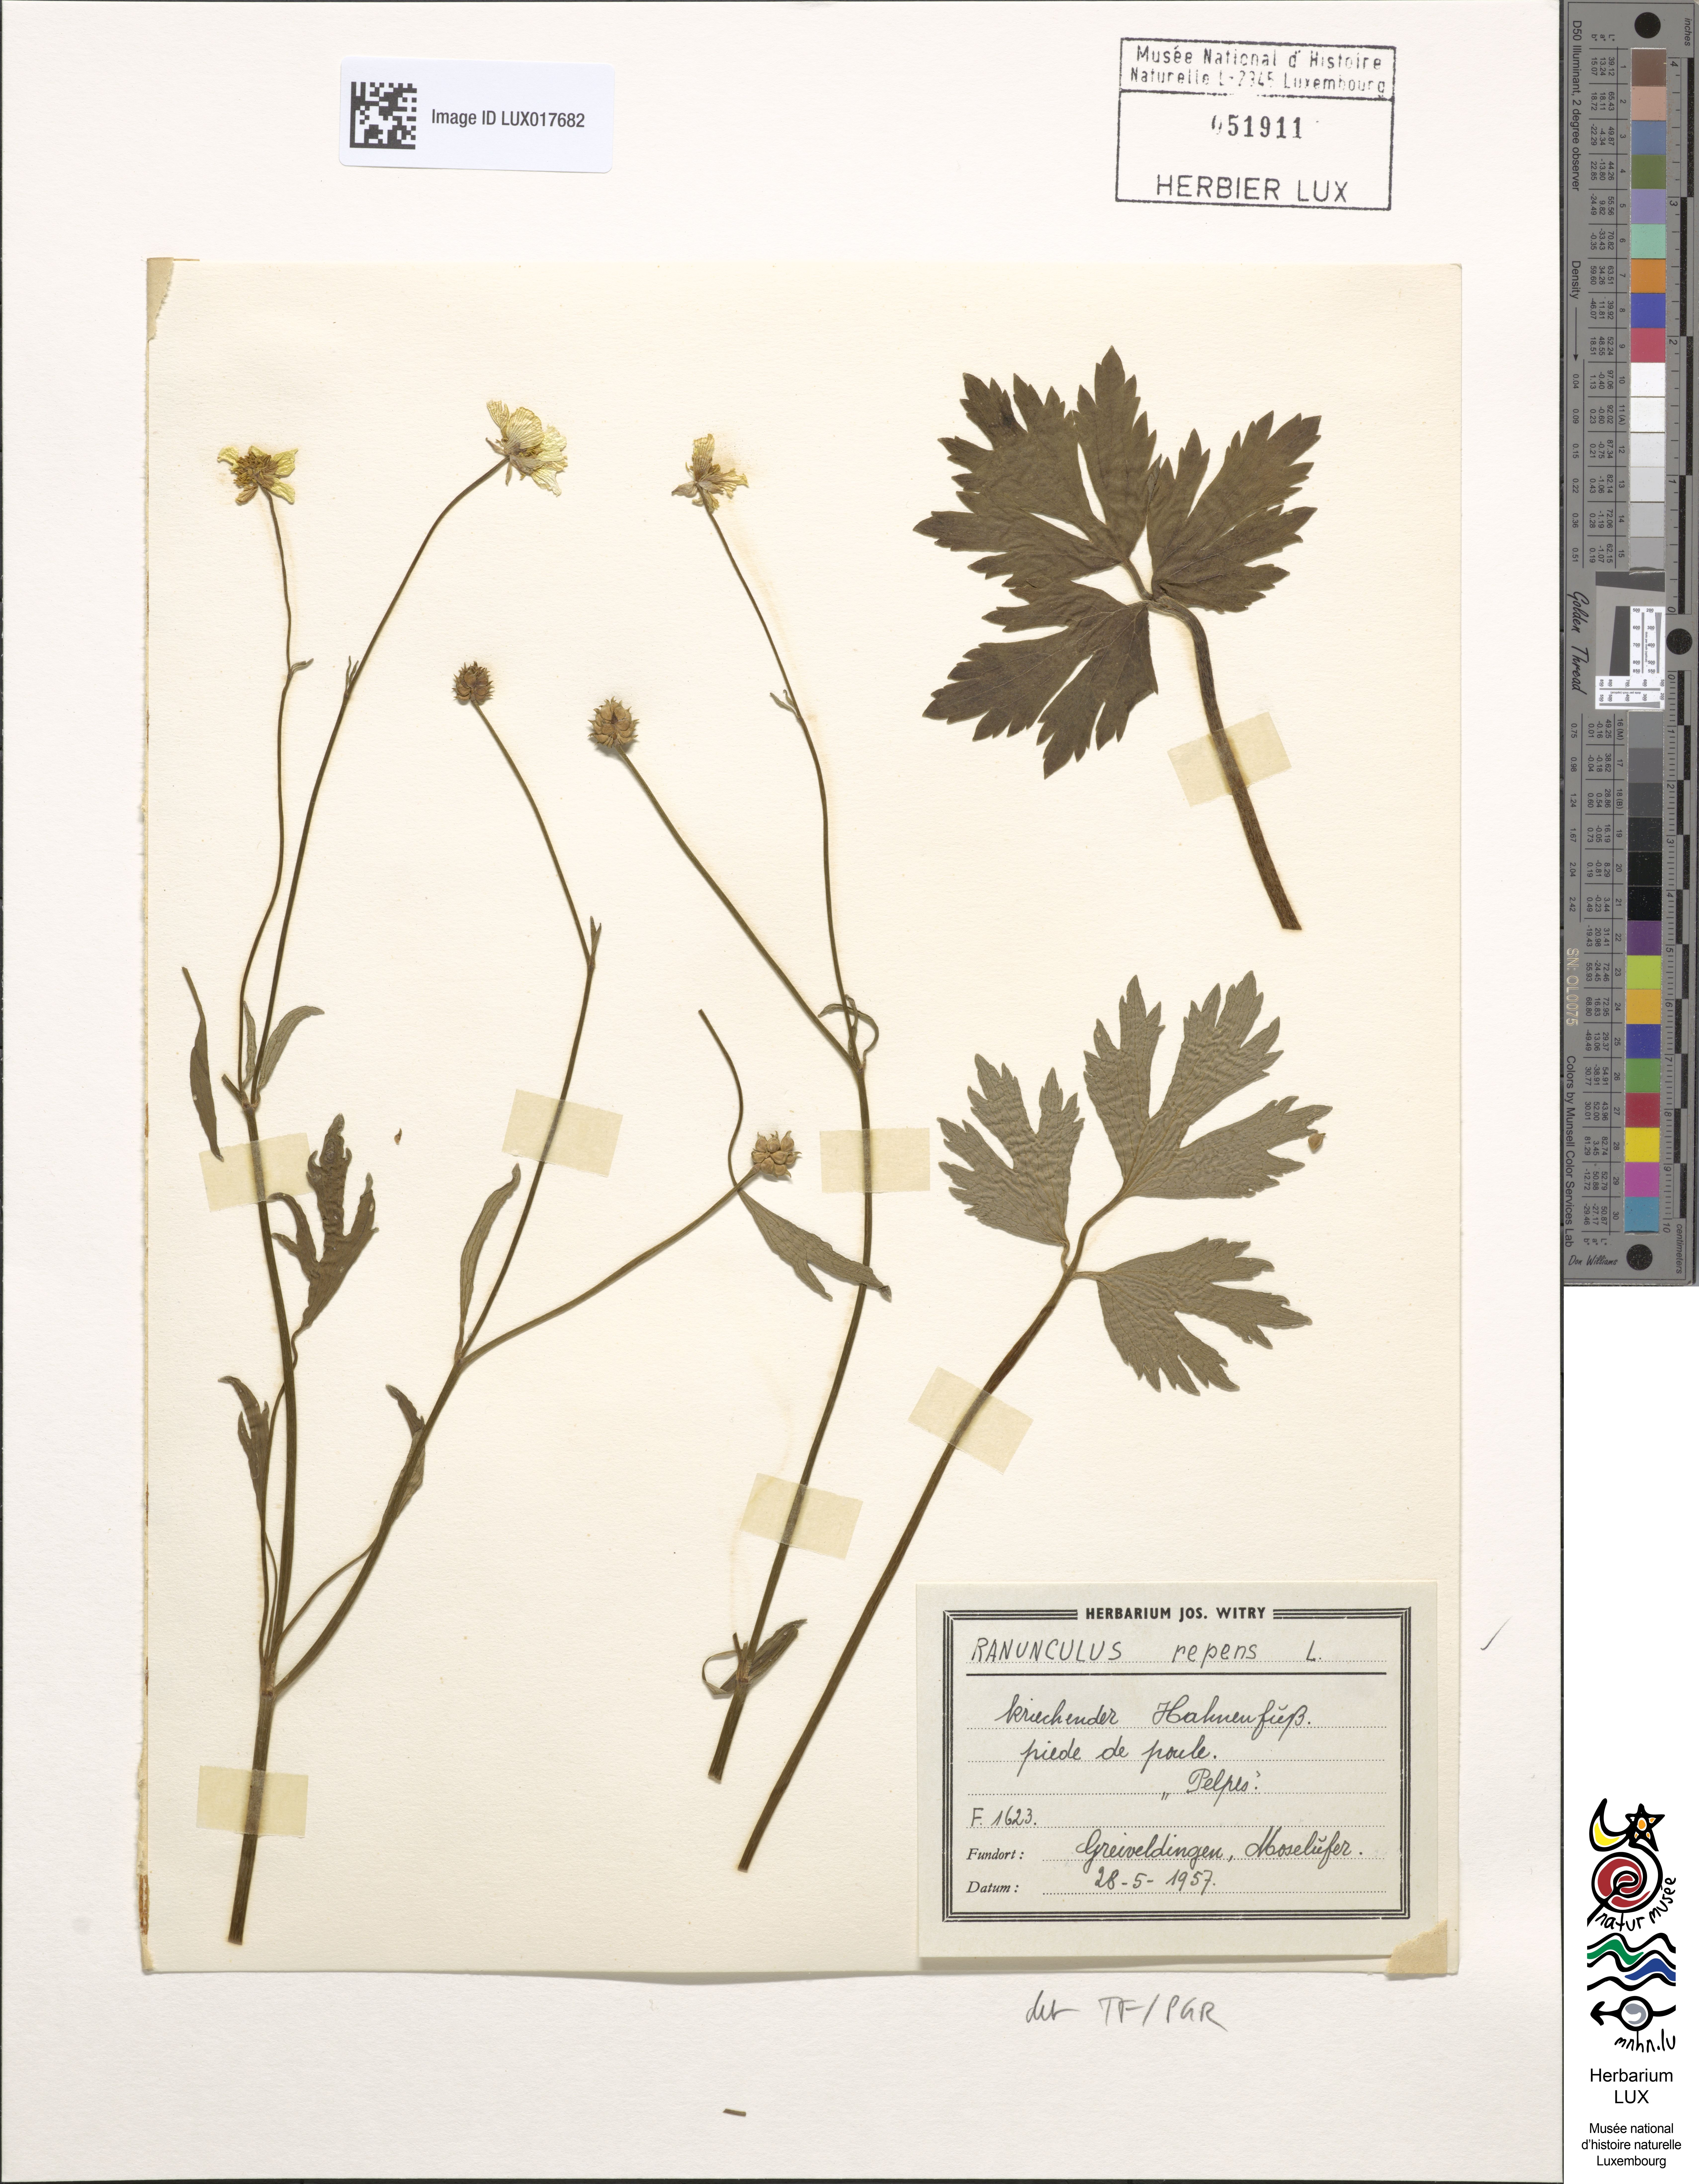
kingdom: Plantae
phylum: Tracheophyta
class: Magnoliopsida
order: Ranunculales
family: Ranunculaceae
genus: Ranunculus
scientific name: Ranunculus repens
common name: Creeping buttercup
